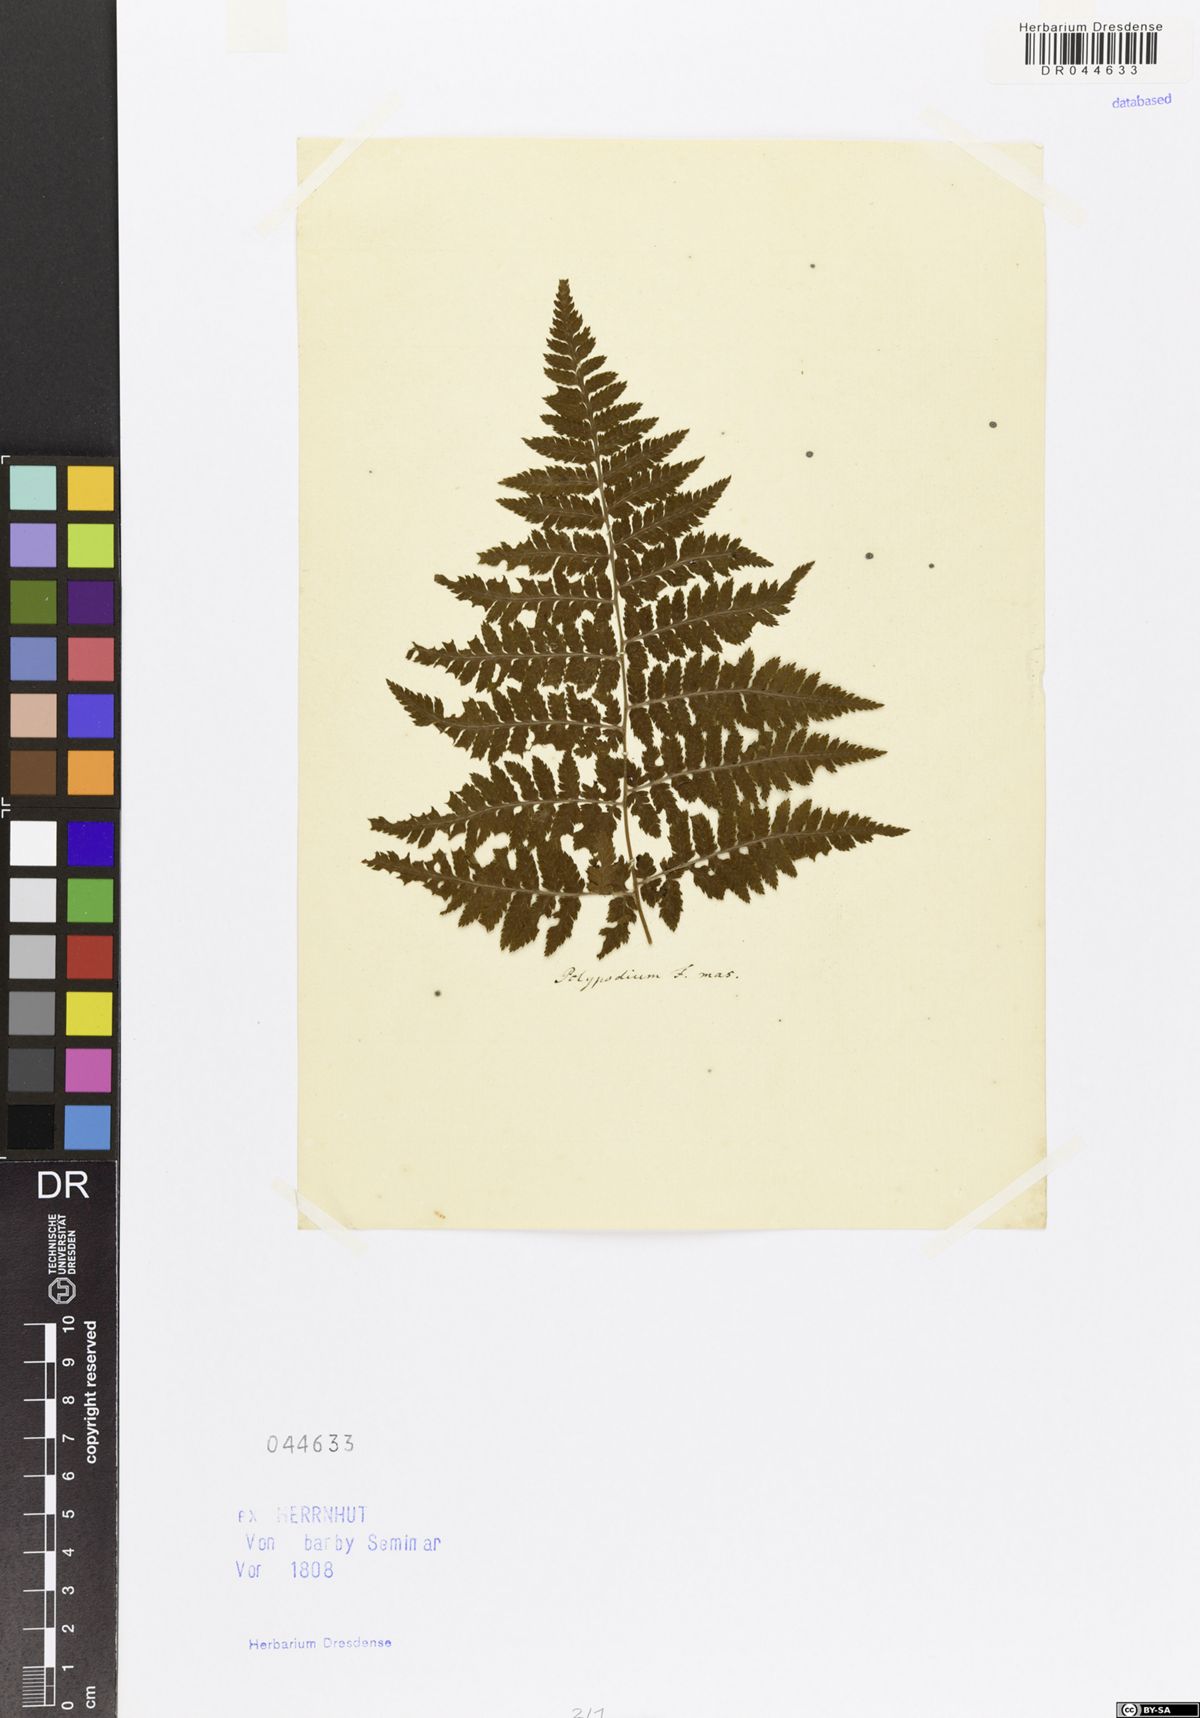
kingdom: Plantae
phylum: Tracheophyta
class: Polypodiopsida
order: Polypodiales
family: Dryopteridaceae
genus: Dryopteris
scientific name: Dryopteris carthusiana
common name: Narrow buckler-fern
